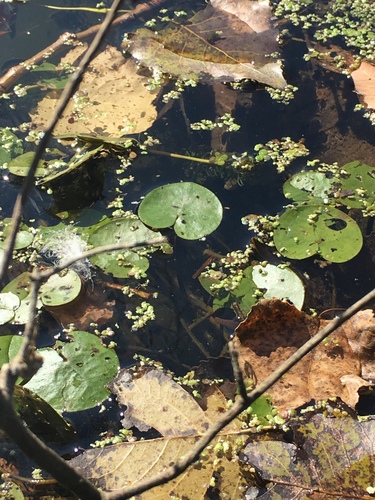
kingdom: Plantae
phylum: Tracheophyta
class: Liliopsida
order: Alismatales
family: Hydrocharitaceae
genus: Hydrocharis
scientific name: Hydrocharis morsus-ranae
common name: European frog-bit
